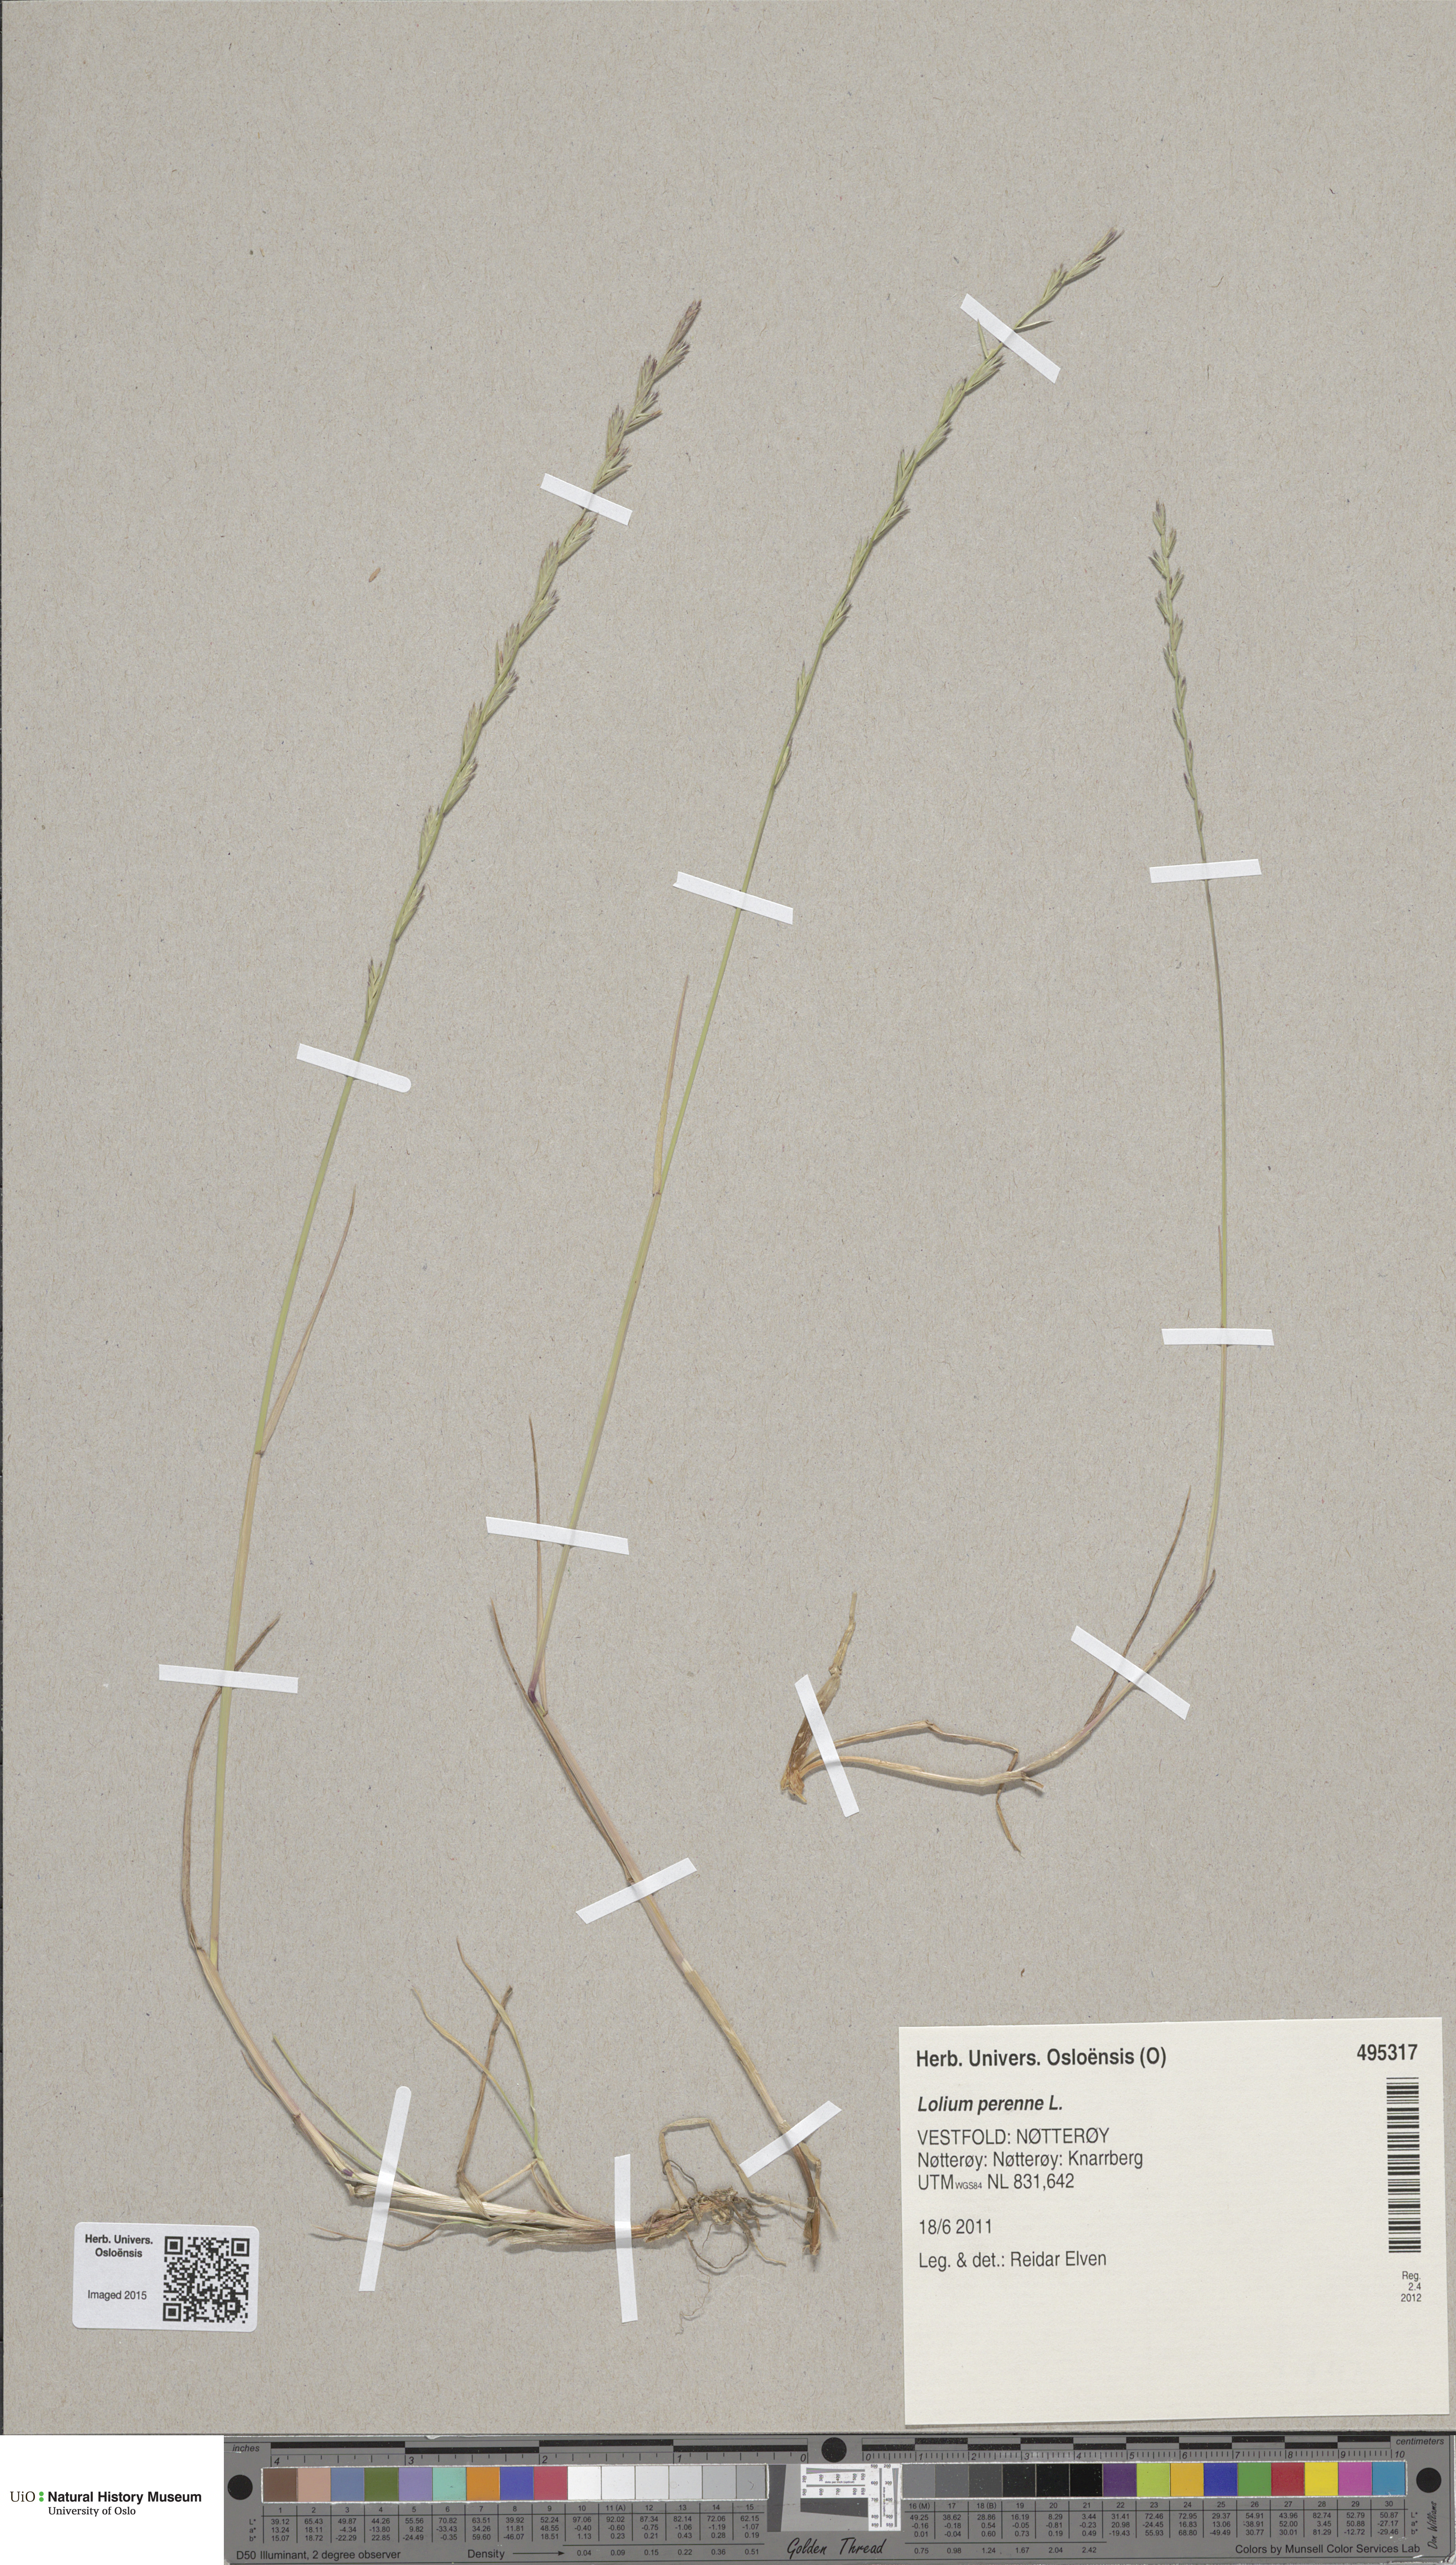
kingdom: Plantae
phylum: Tracheophyta
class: Liliopsida
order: Poales
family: Poaceae
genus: Lolium
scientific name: Lolium perenne
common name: Perennial ryegrass
